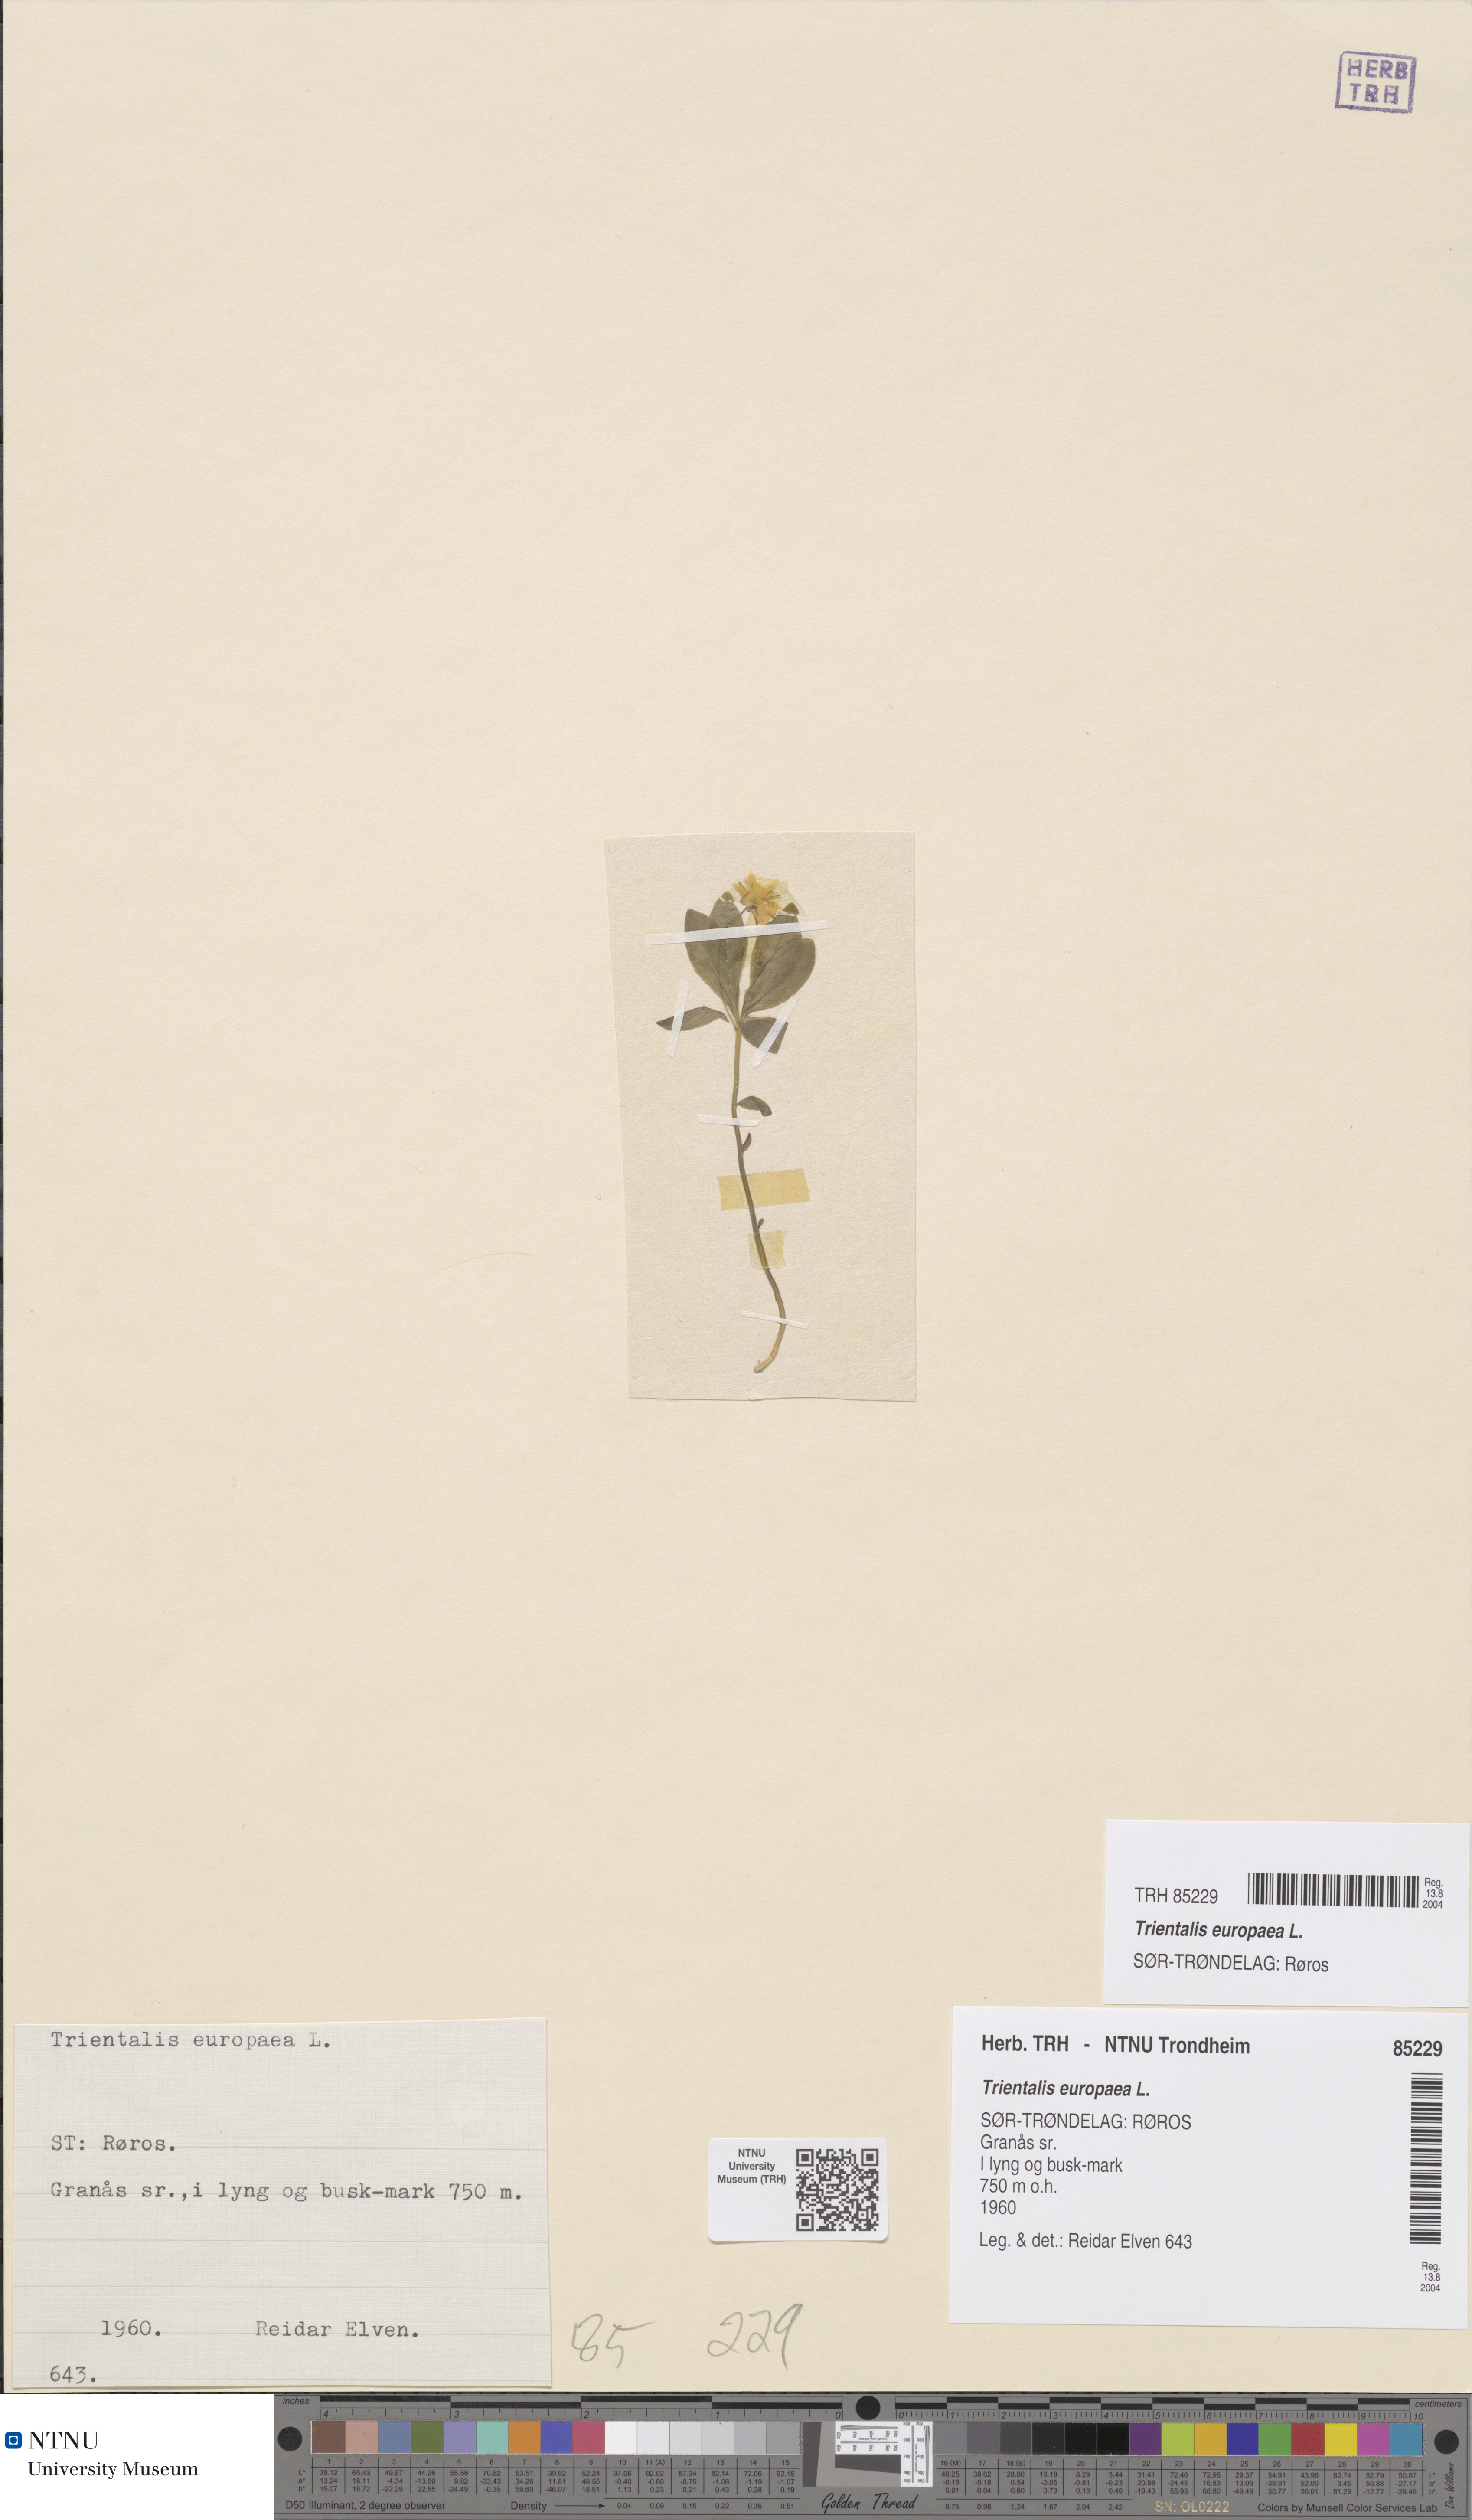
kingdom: Plantae
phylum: Tracheophyta
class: Magnoliopsida
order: Ericales
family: Primulaceae
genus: Lysimachia
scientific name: Lysimachia europaea
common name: Arctic starflower
